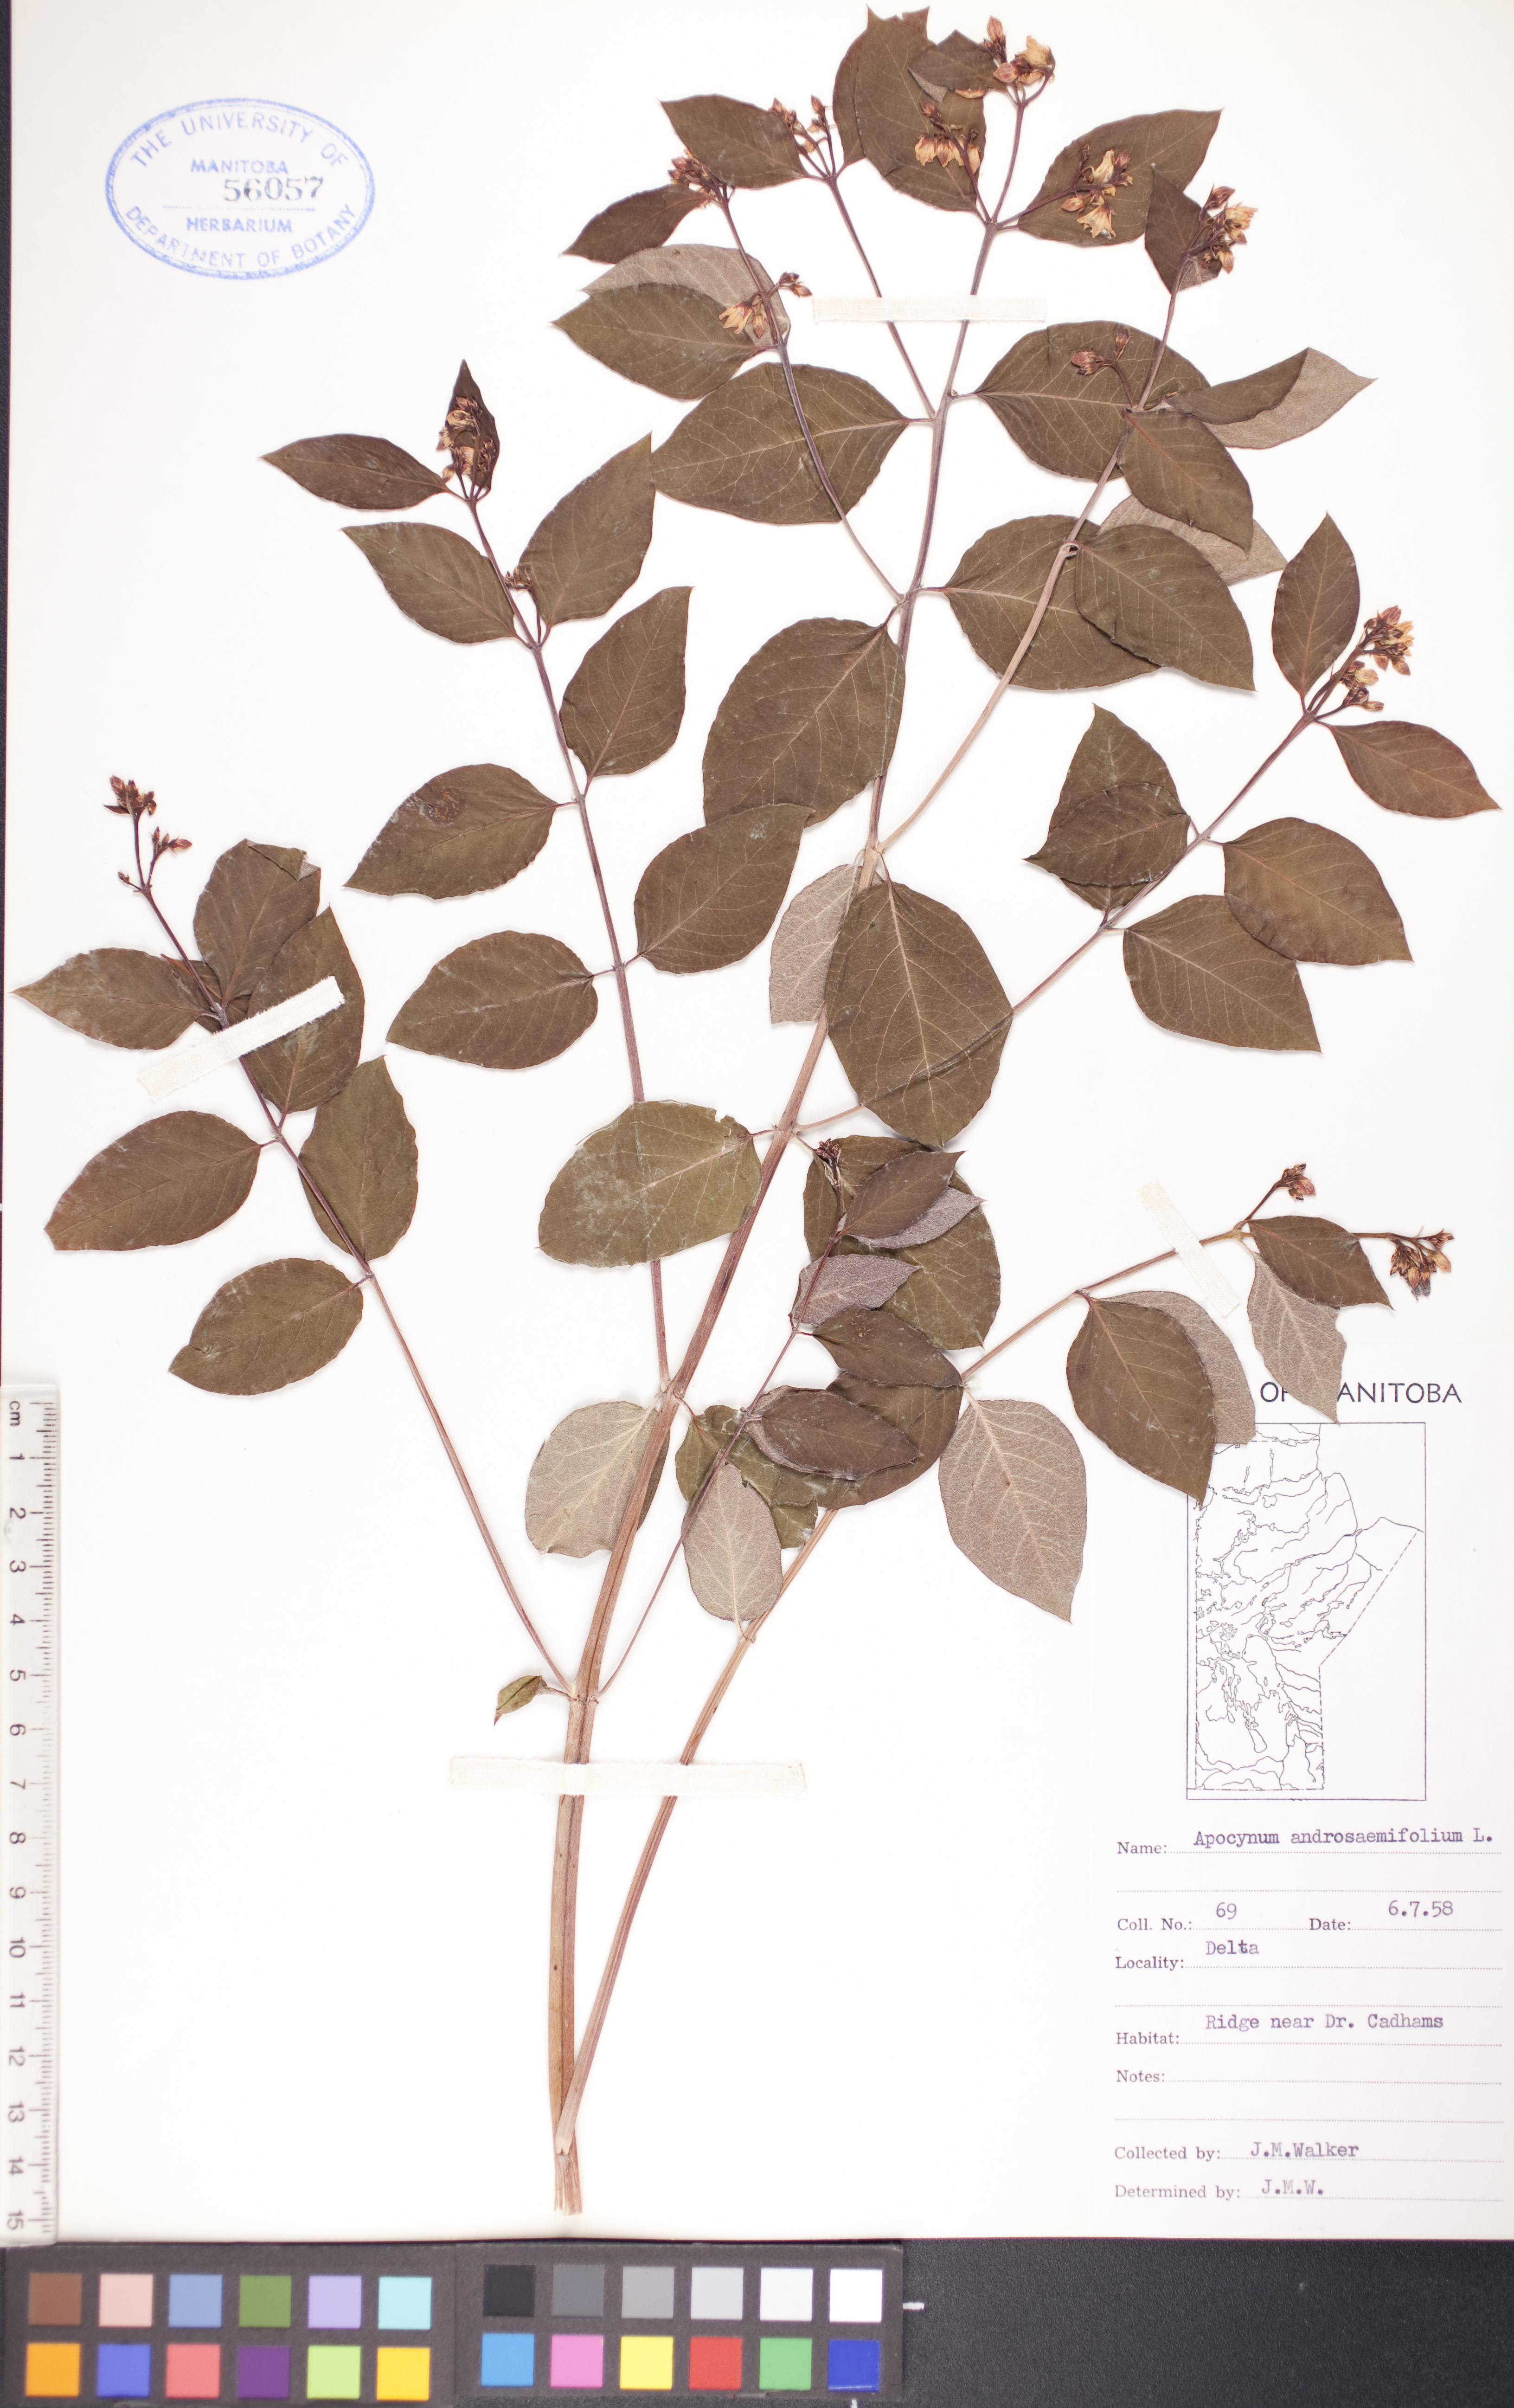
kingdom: Plantae
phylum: Tracheophyta
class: Magnoliopsida
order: Gentianales
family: Apocynaceae
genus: Apocynum
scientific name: Apocynum androsaemifolium
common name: Spreading dogbane
